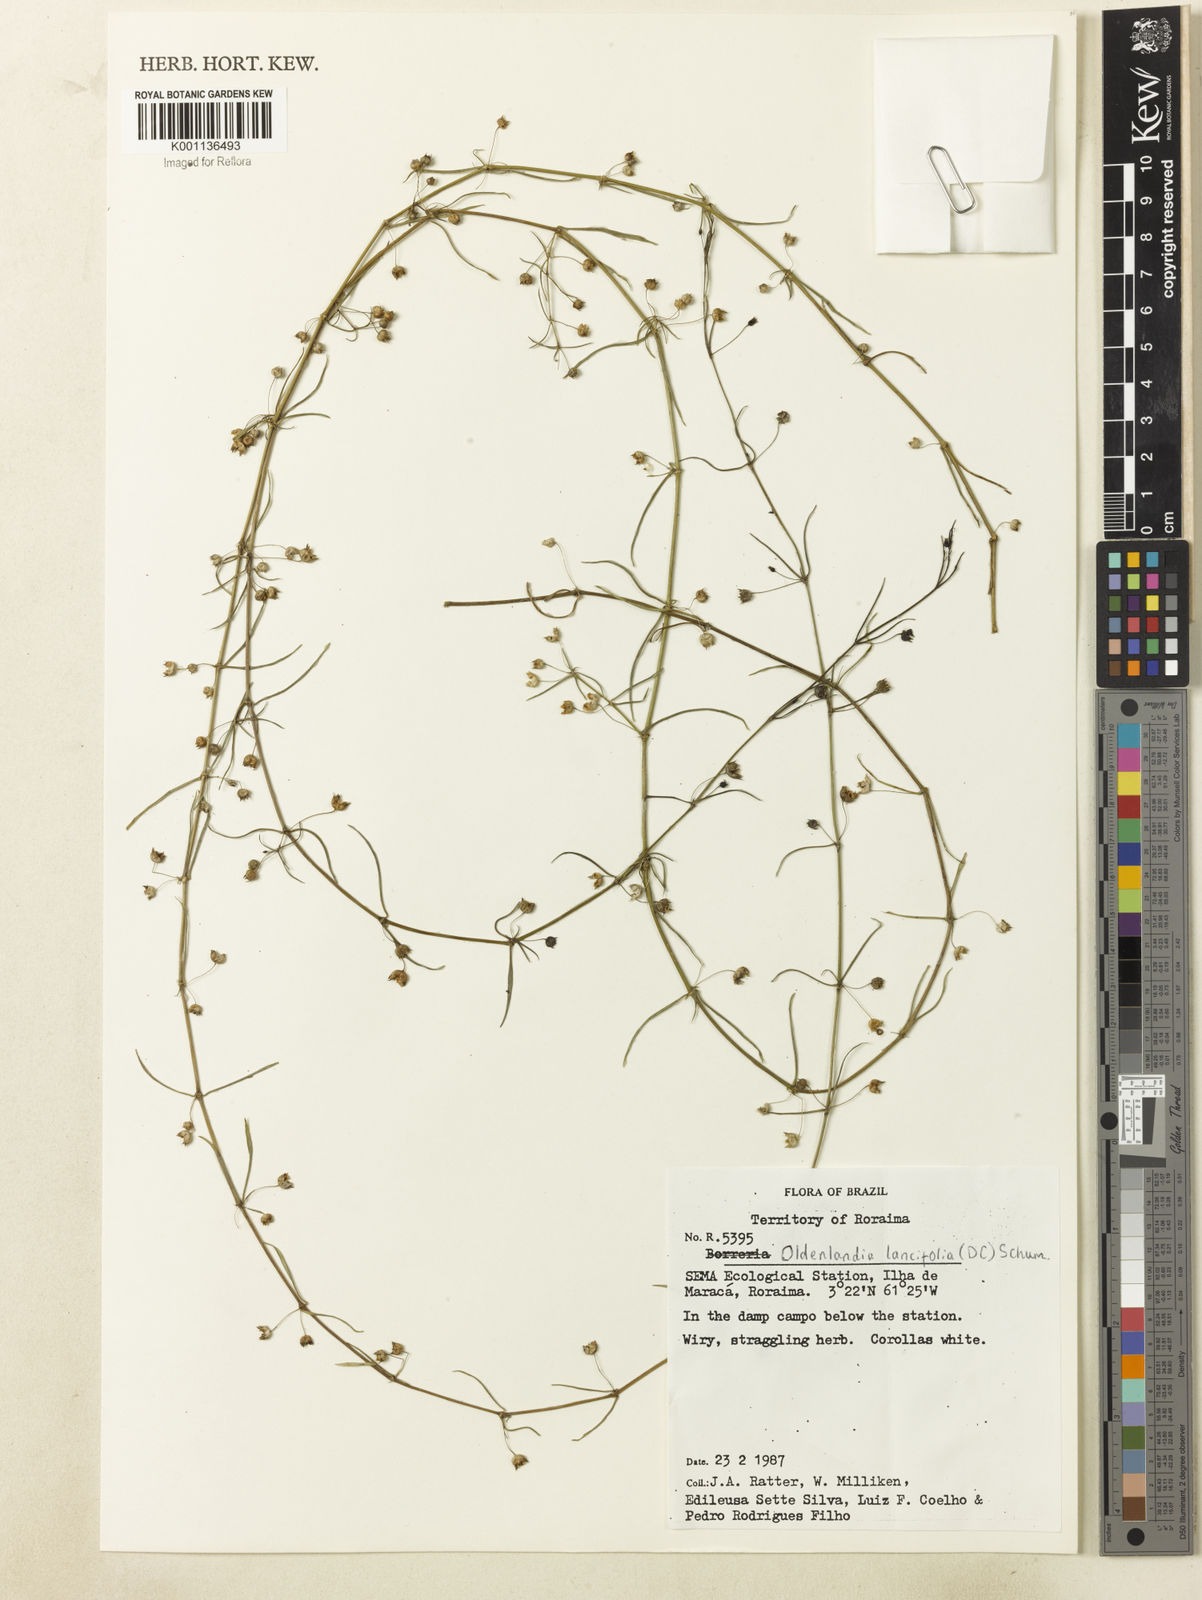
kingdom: Plantae
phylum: Tracheophyta
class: Magnoliopsida
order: Gentianales
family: Rubiaceae
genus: Oldenlandia
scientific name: Oldenlandia lancifolia
